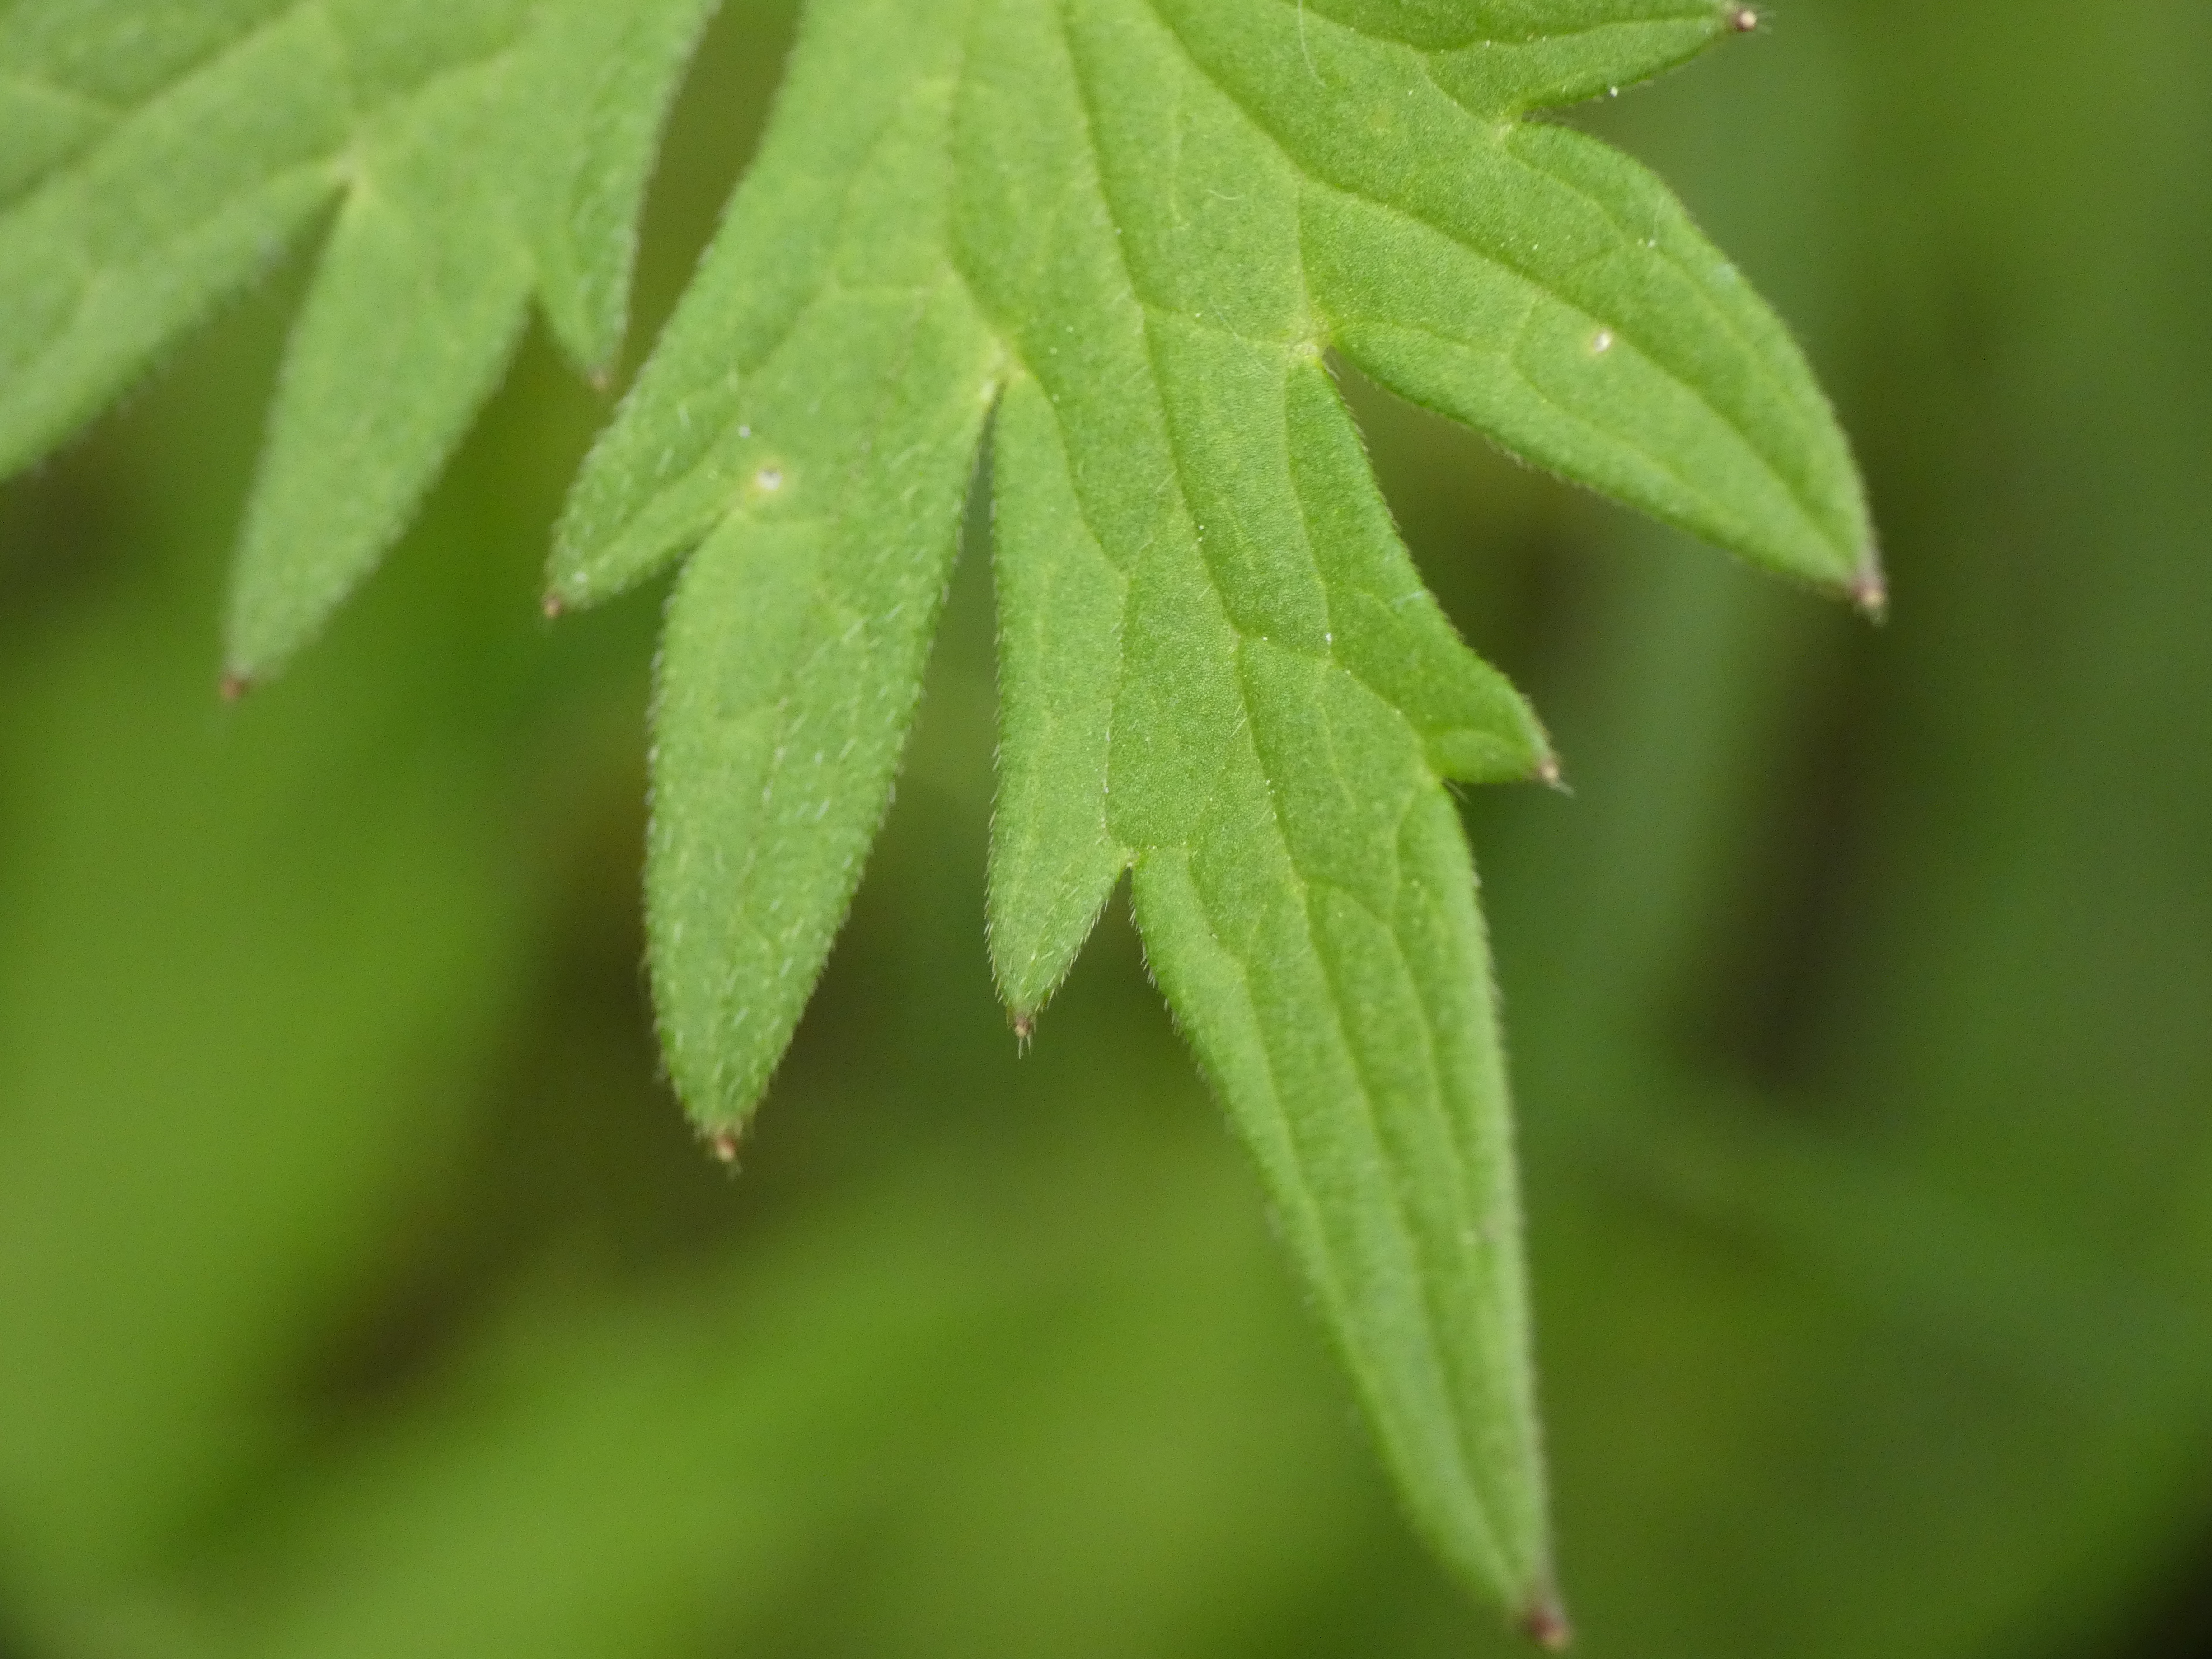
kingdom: Plantae
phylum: Tracheophyta
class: Magnoliopsida
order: Ranunculales
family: Ranunculaceae
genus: Ranunculus
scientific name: Ranunculus acris
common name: Bidende ranunkel
